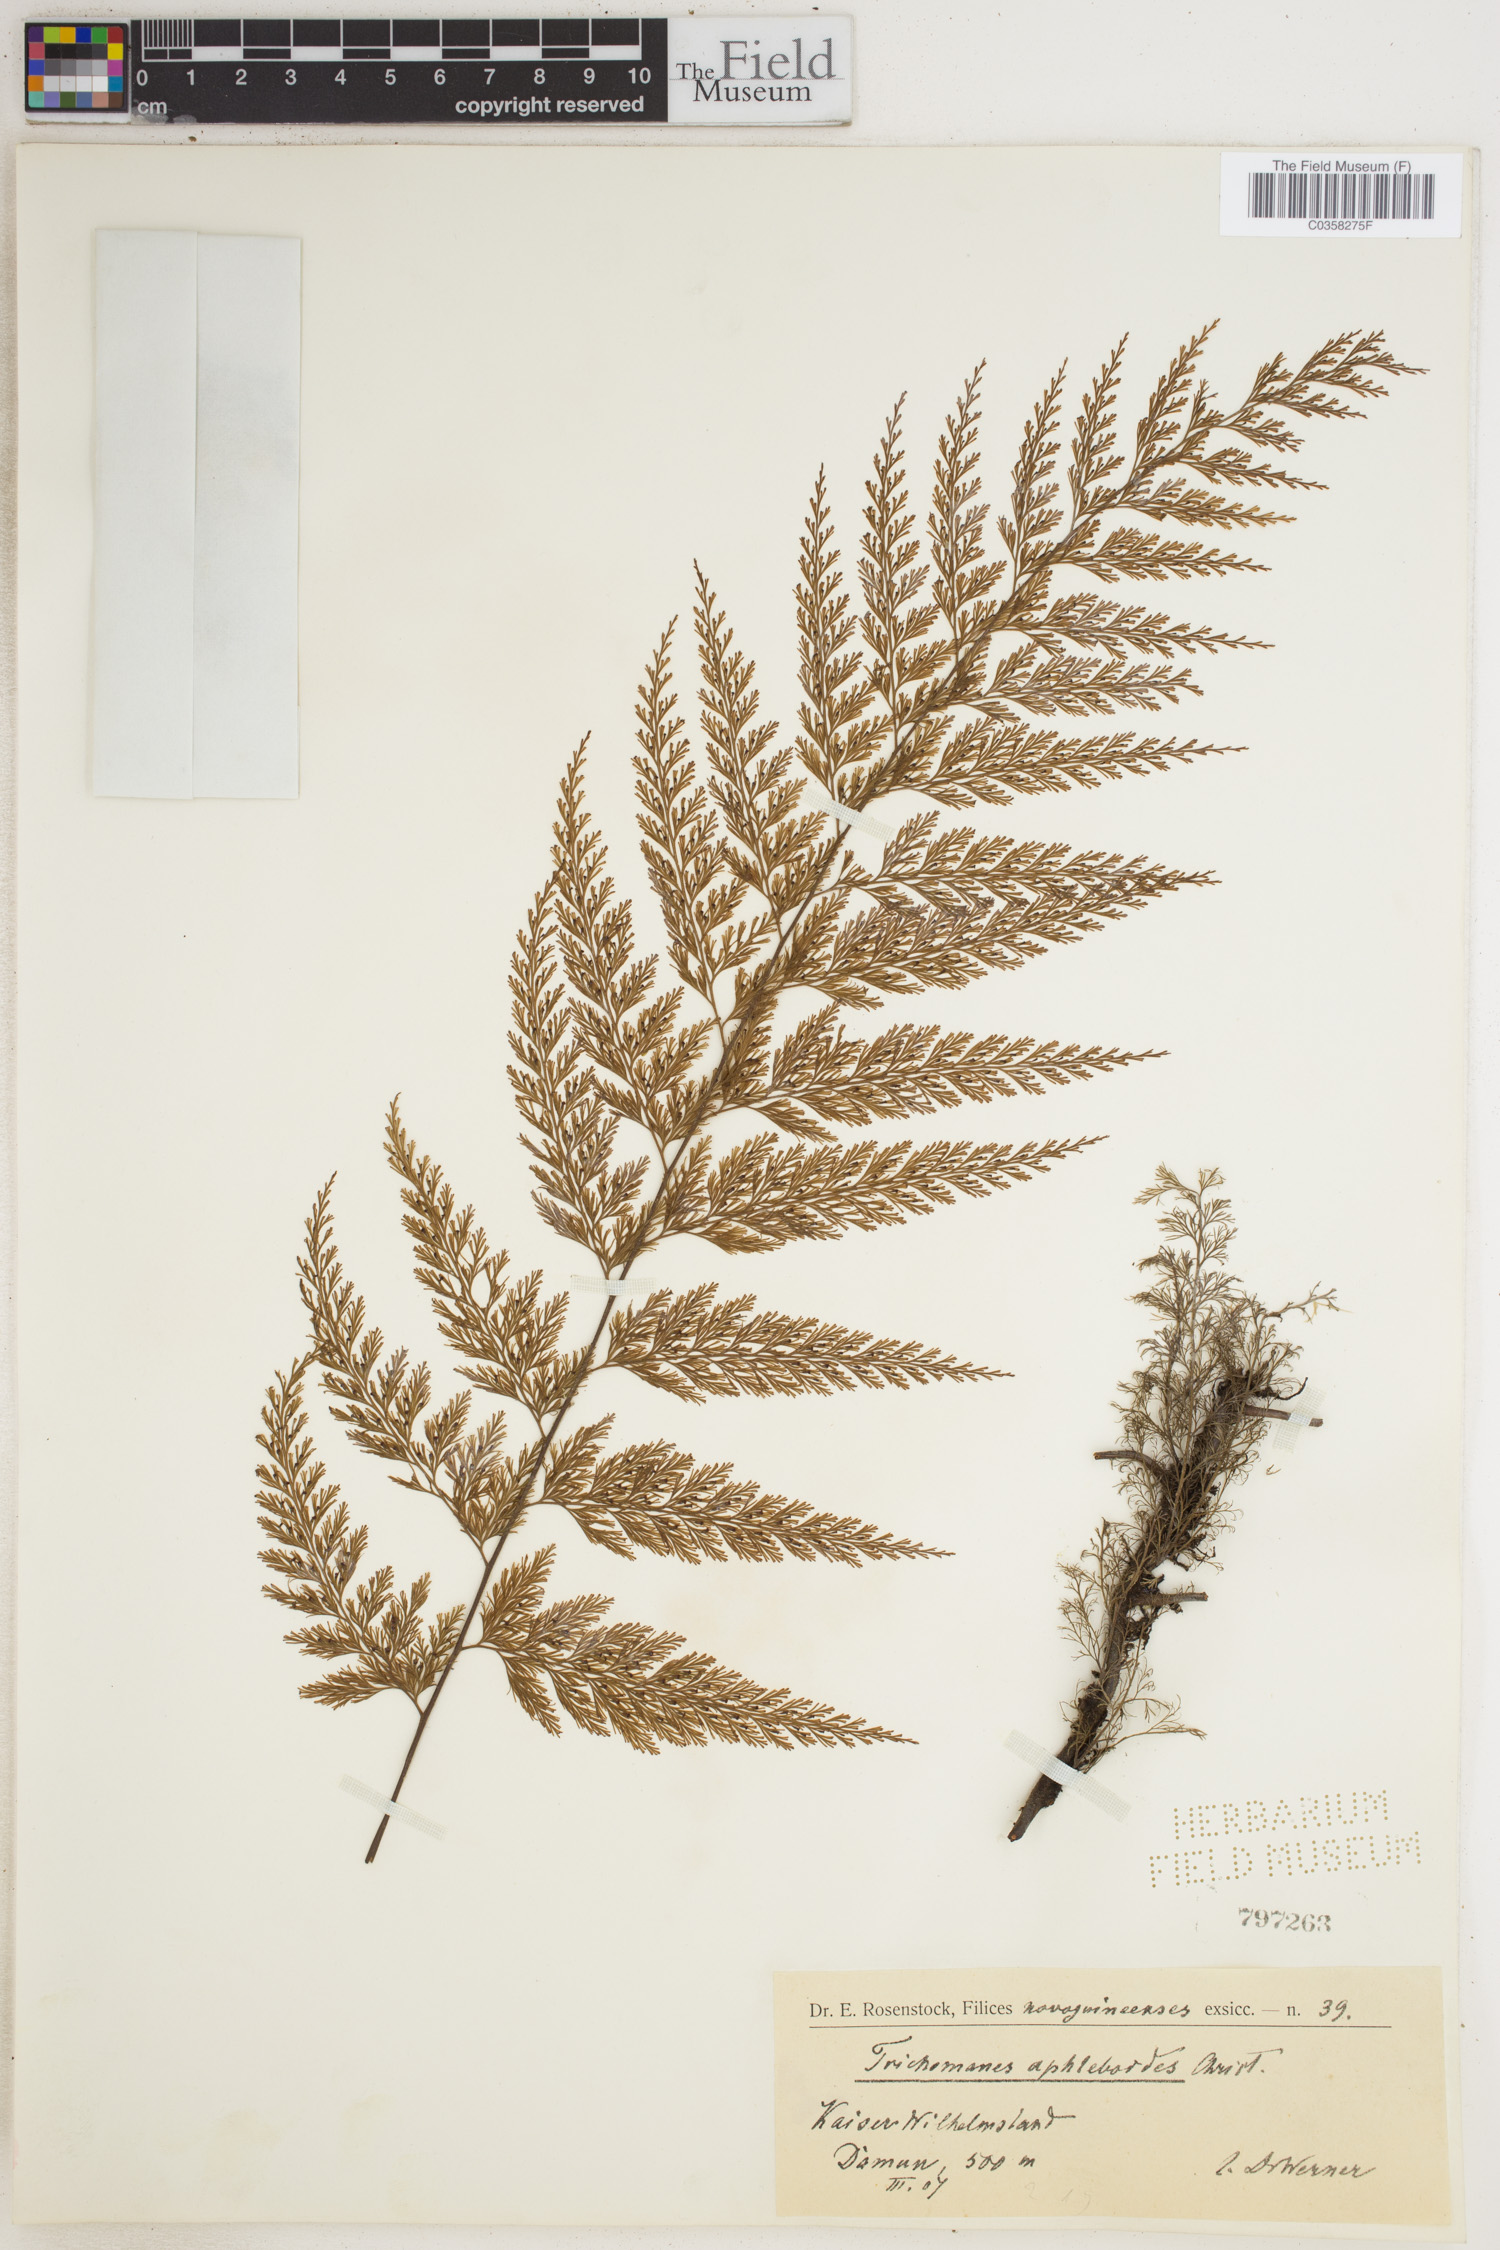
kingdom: Plantae
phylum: Tracheophyta
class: Polypodiopsida
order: Hymenophyllales
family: Hymenophyllaceae
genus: Trichomanes
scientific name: Trichomanes
